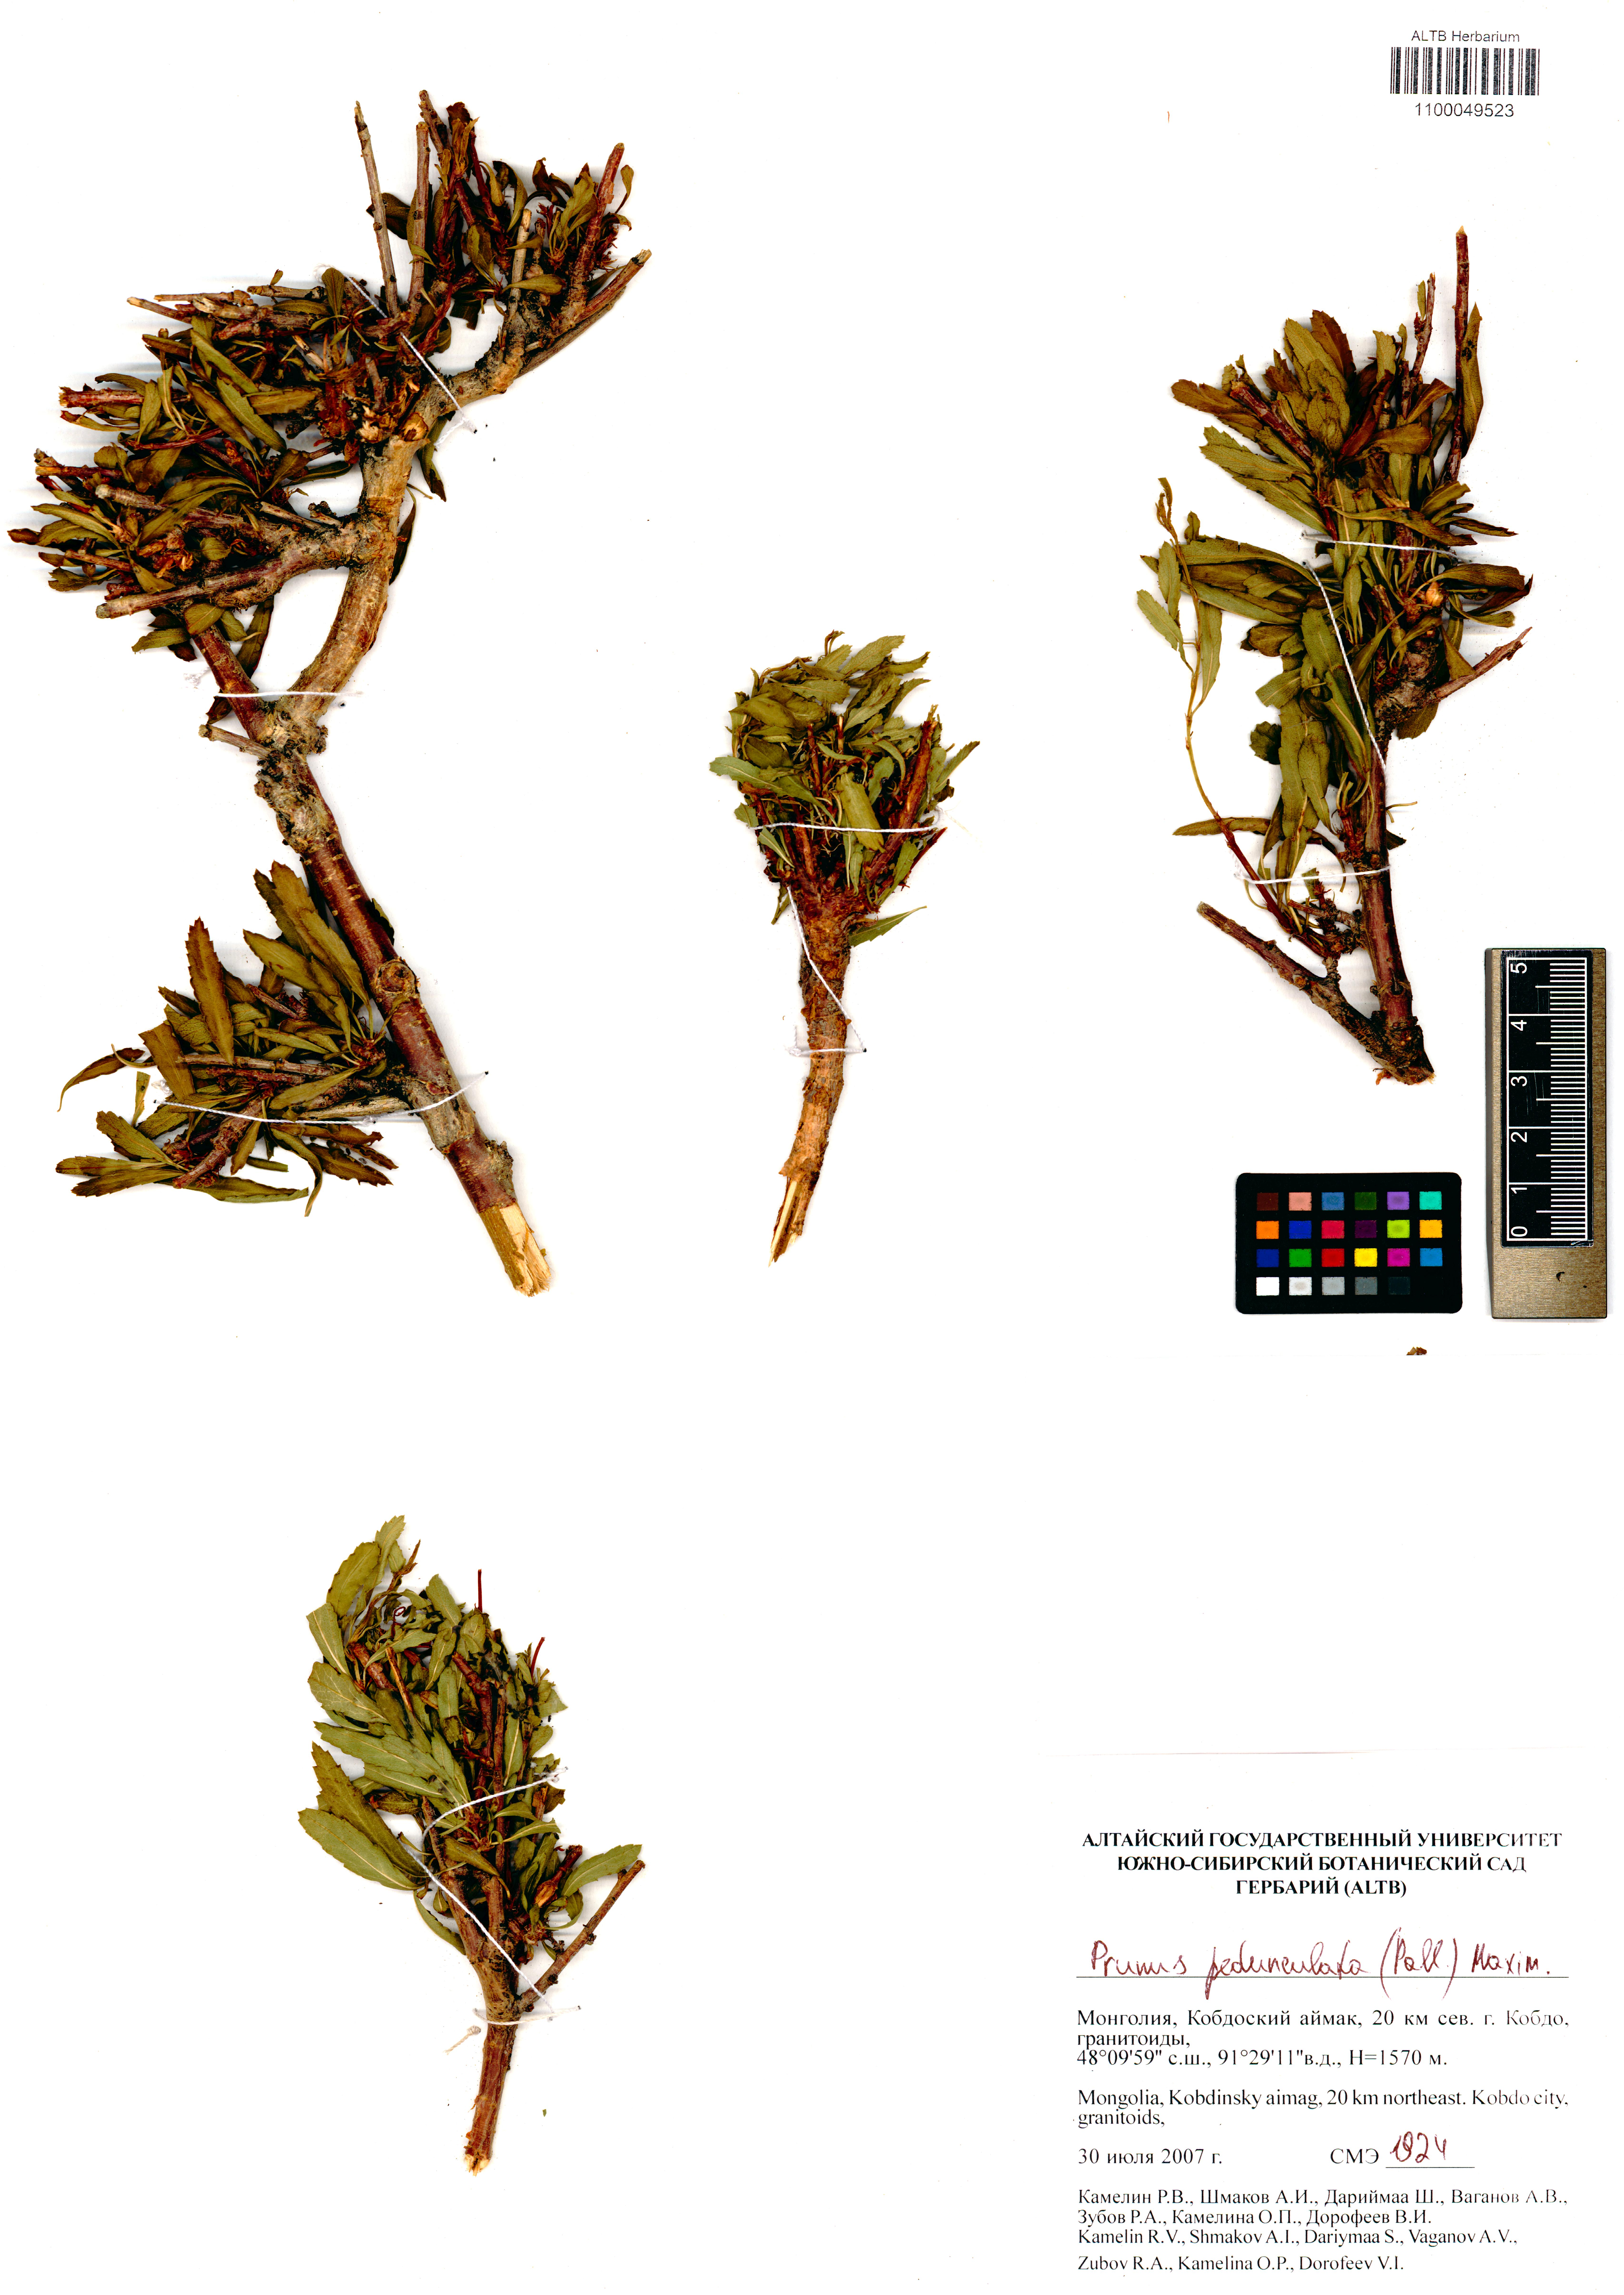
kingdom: Plantae
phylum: Tracheophyta
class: Magnoliopsida
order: Rosales
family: Rosaceae
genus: Prunus
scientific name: Prunus pedunculata
